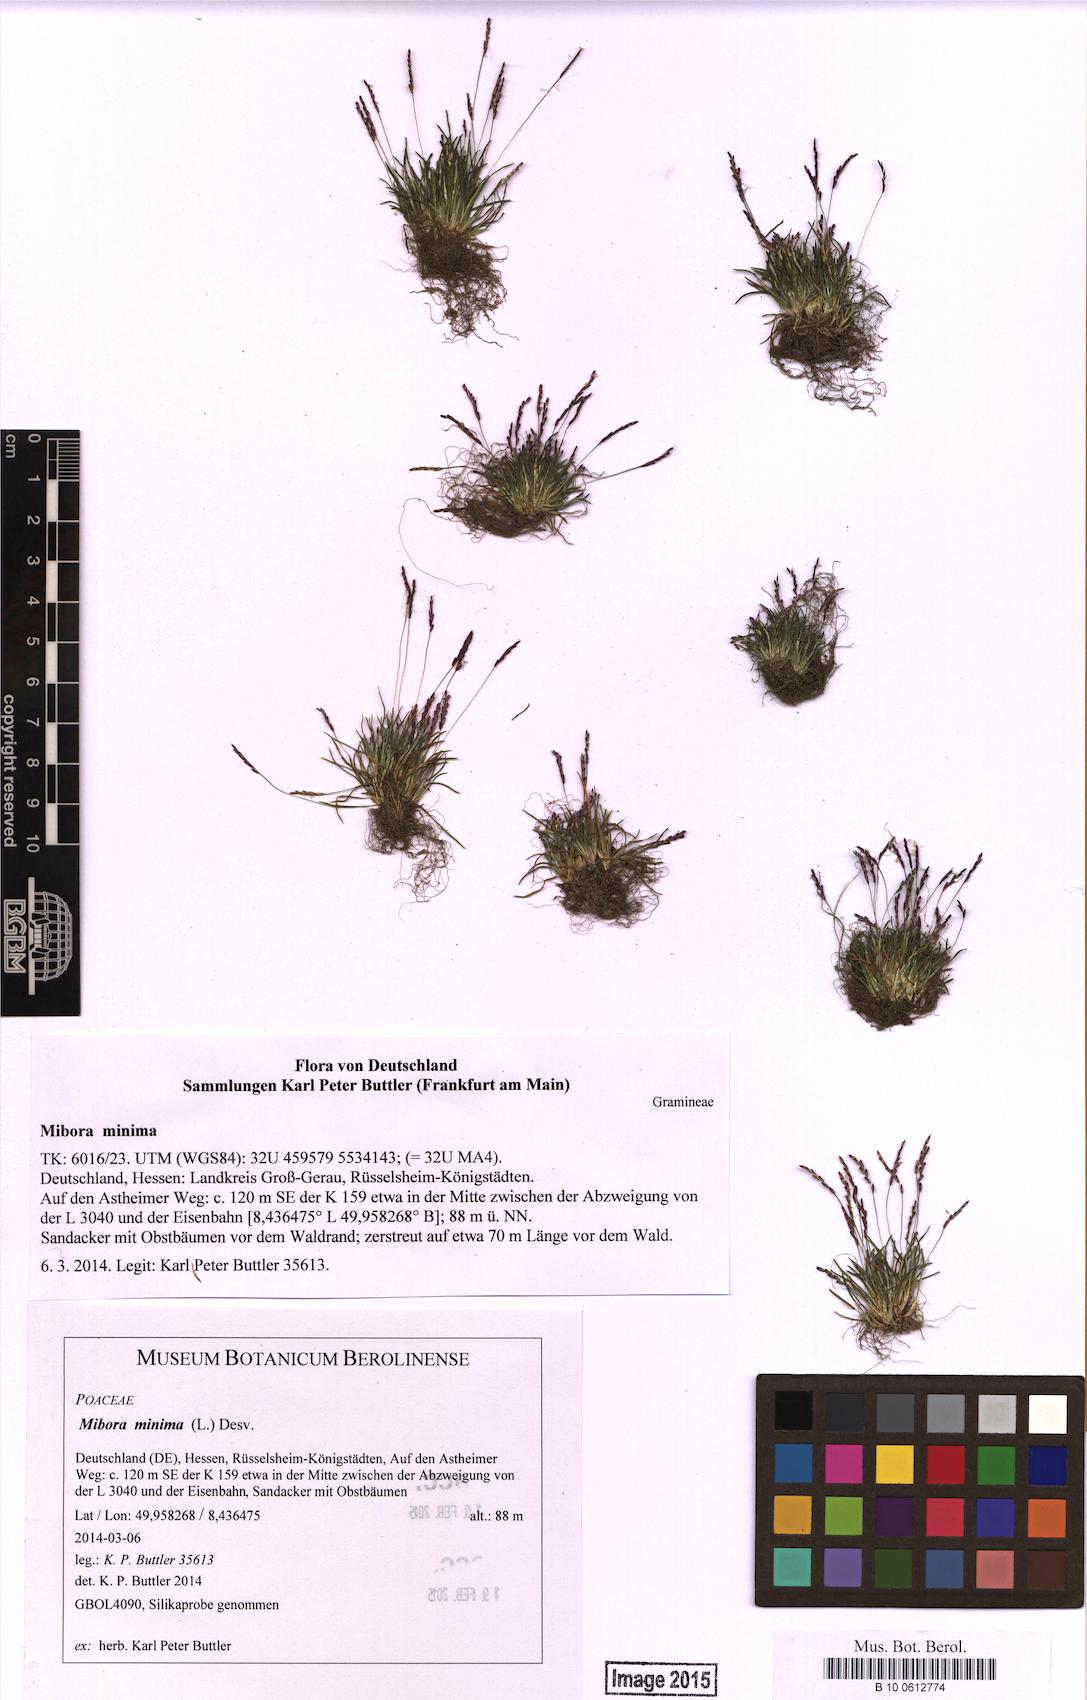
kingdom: Plantae
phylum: Tracheophyta
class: Liliopsida
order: Poales
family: Poaceae
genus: Mibora
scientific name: Mibora minima
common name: Early sand-grass
